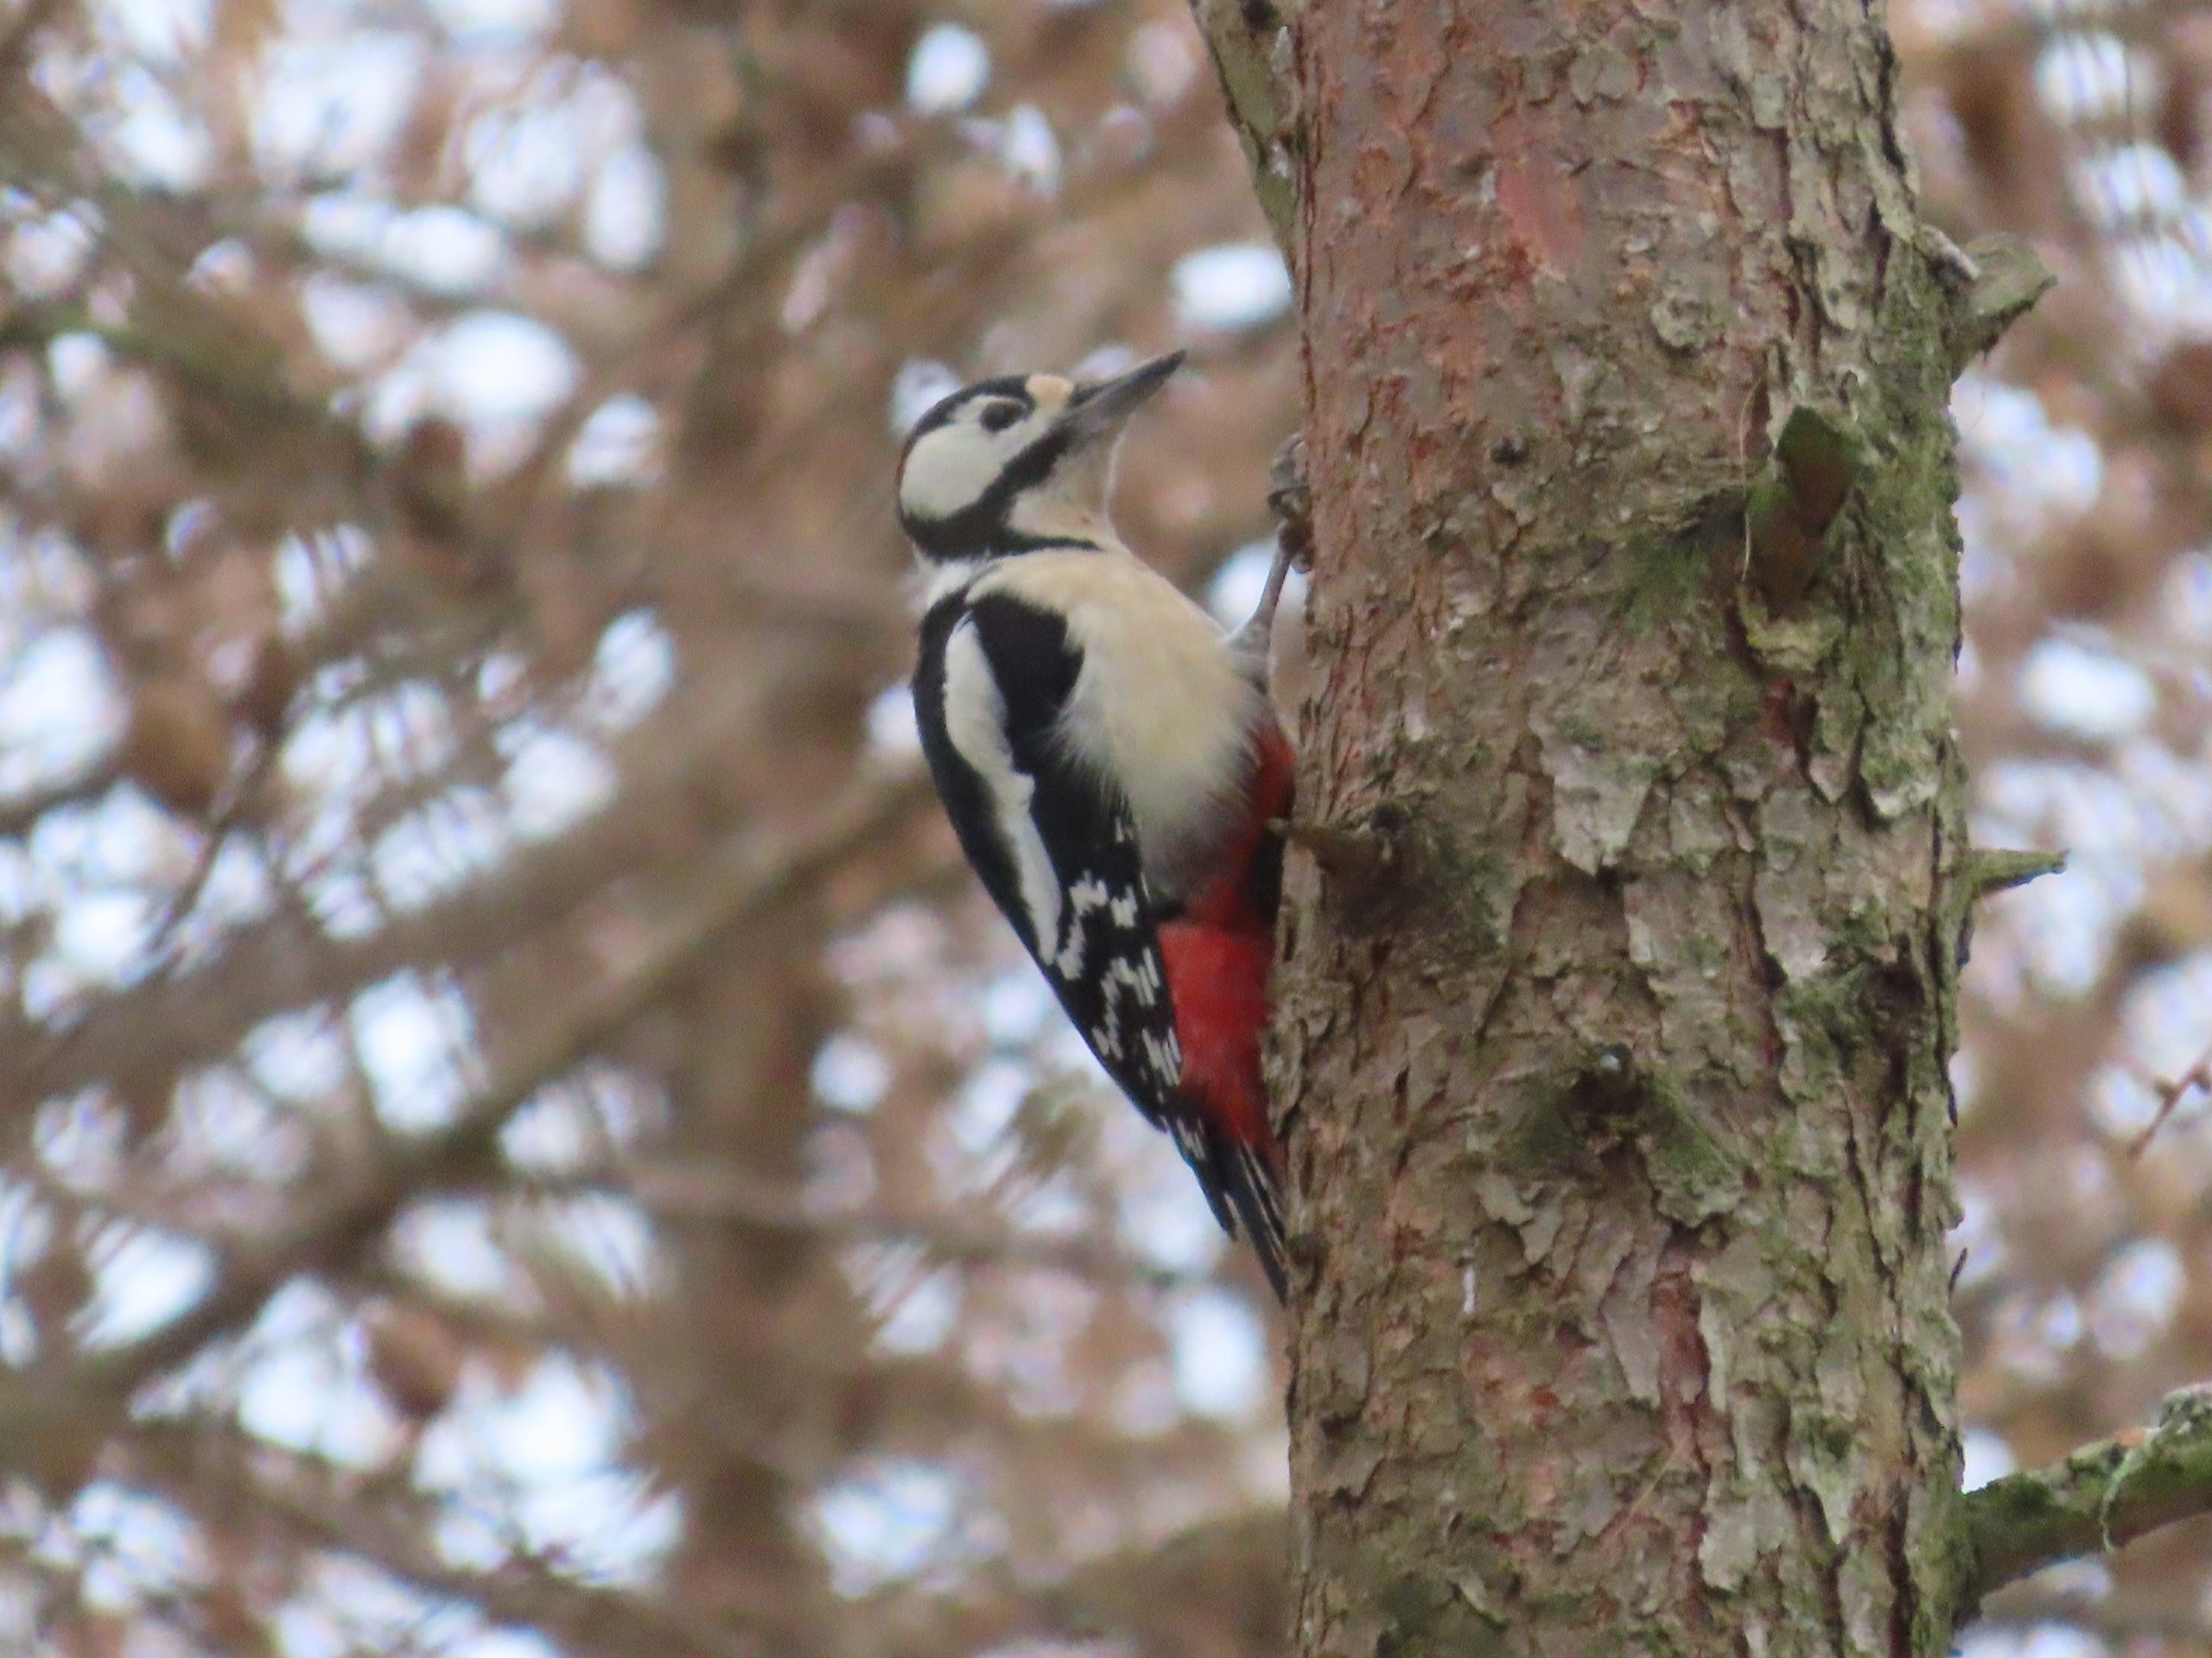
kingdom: Animalia
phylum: Chordata
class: Aves
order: Piciformes
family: Picidae
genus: Dendrocopos
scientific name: Dendrocopos major
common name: Stor flagspætte
